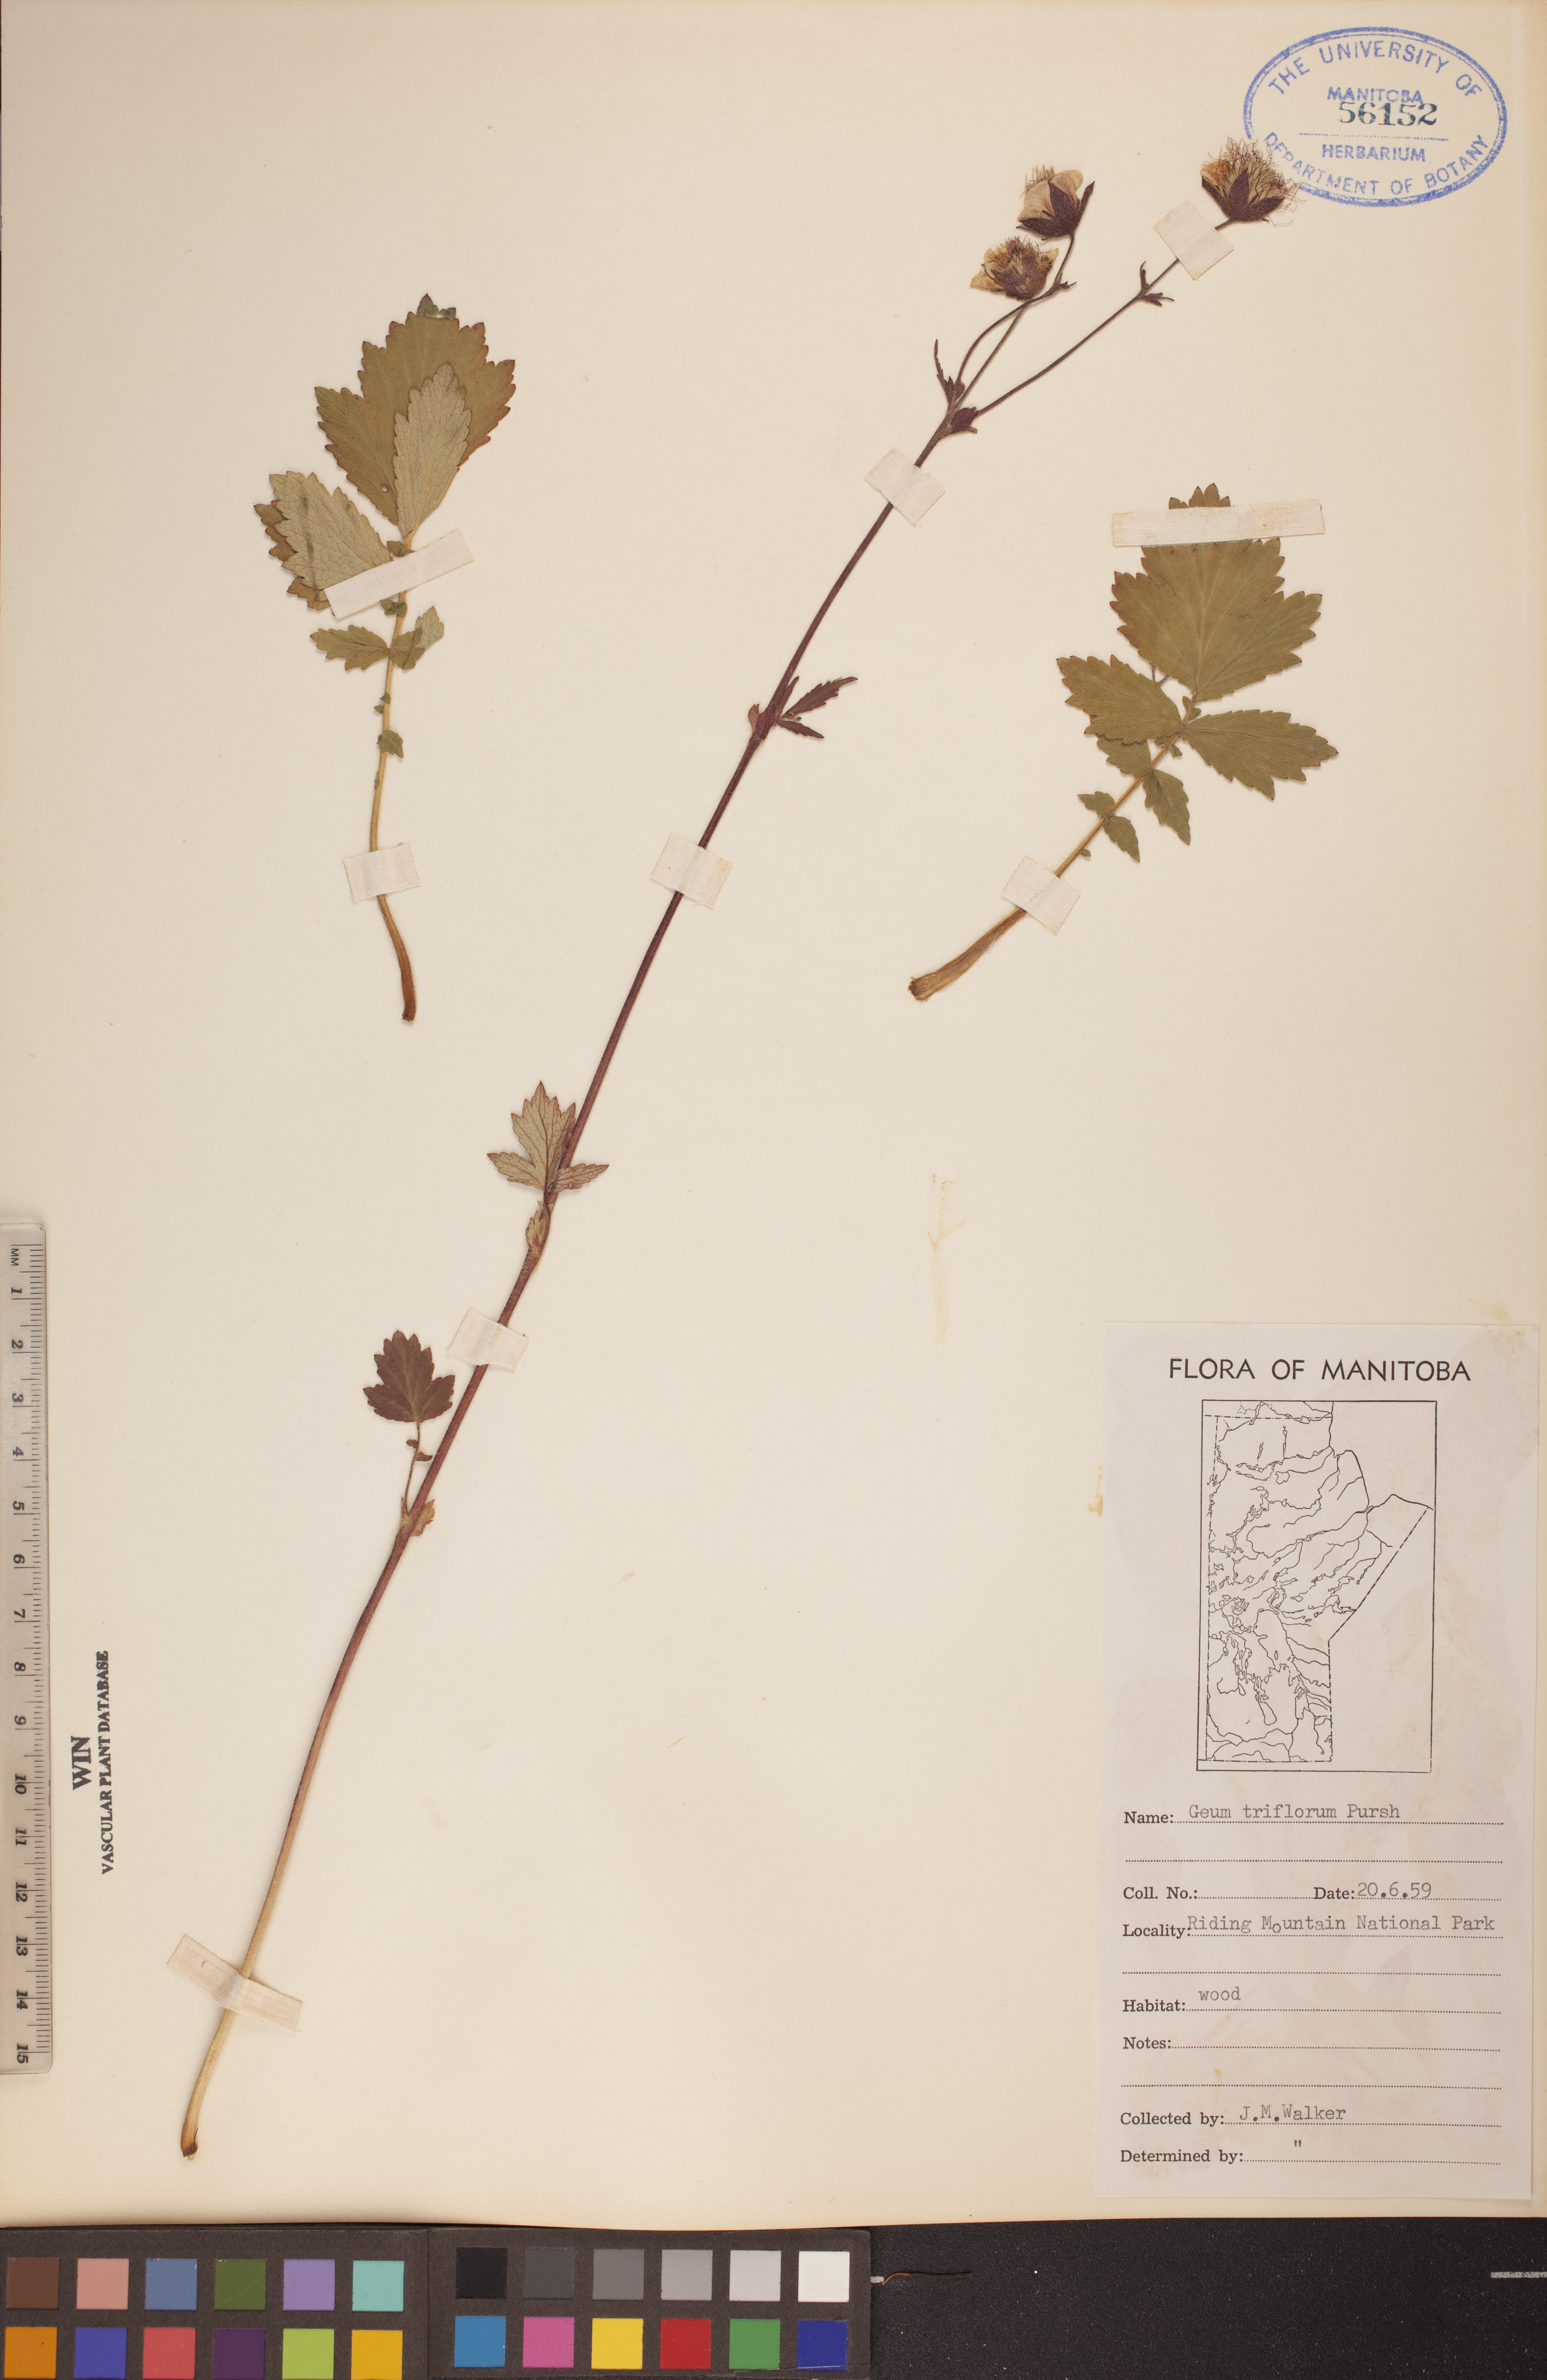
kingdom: Plantae
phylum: Tracheophyta
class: Magnoliopsida
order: Rosales
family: Rosaceae
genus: Geum
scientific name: Geum triflorum
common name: Old man's whiskers
